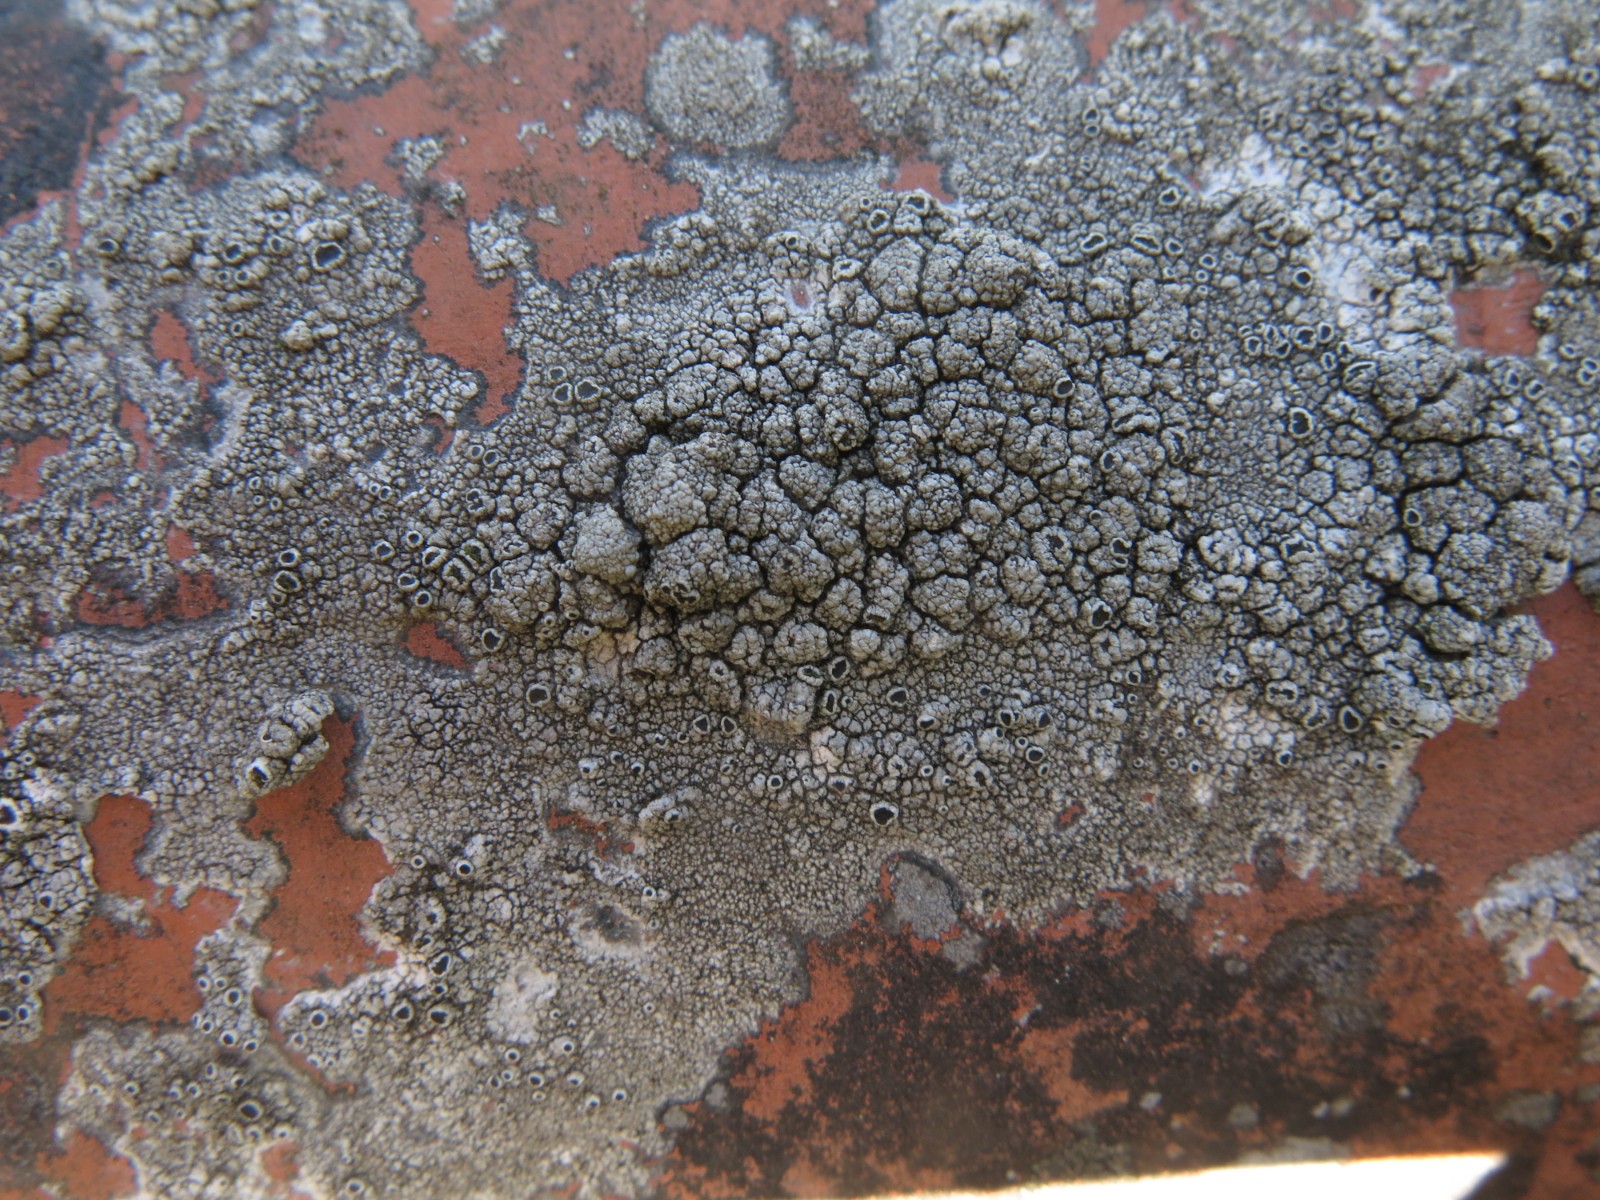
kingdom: Fungi
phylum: Ascomycota
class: Lecanoromycetes
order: Lecanorales
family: Tephromelataceae
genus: Tephromela
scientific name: Tephromela atra
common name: sortfrugtet kantskivelav
